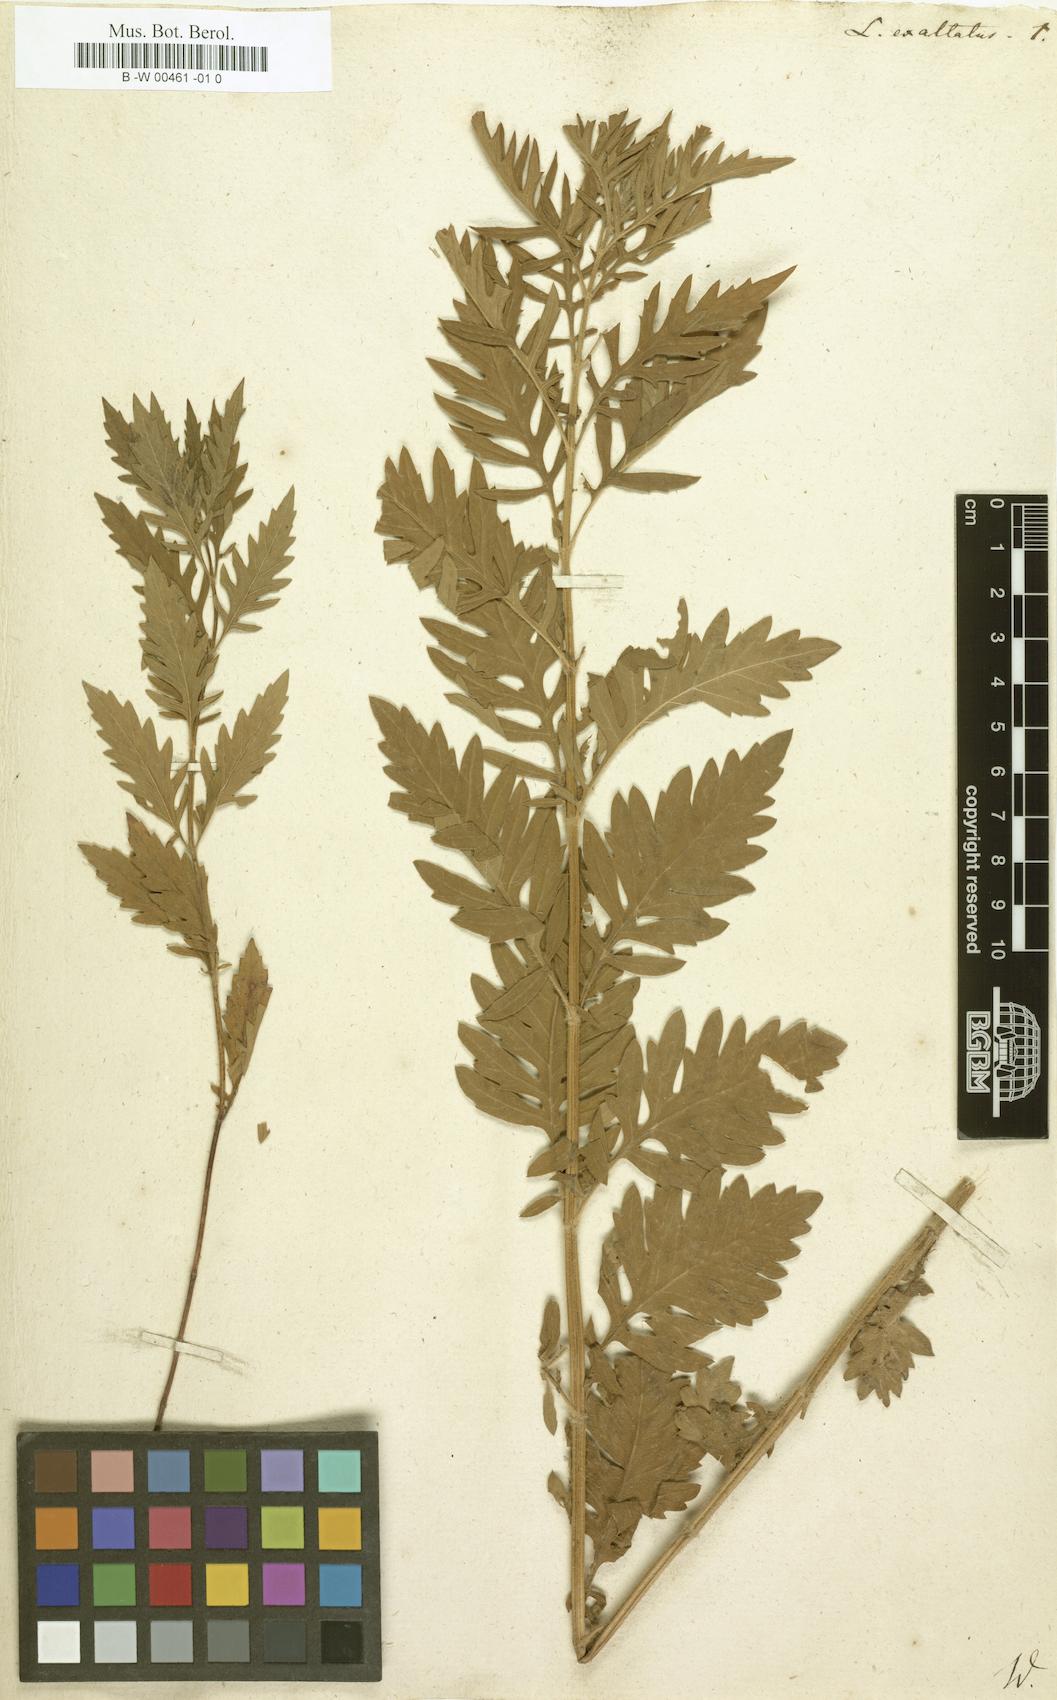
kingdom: Plantae
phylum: Tracheophyta
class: Magnoliopsida
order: Lamiales
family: Lamiaceae
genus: Lycopus
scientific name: Lycopus exaltatus
